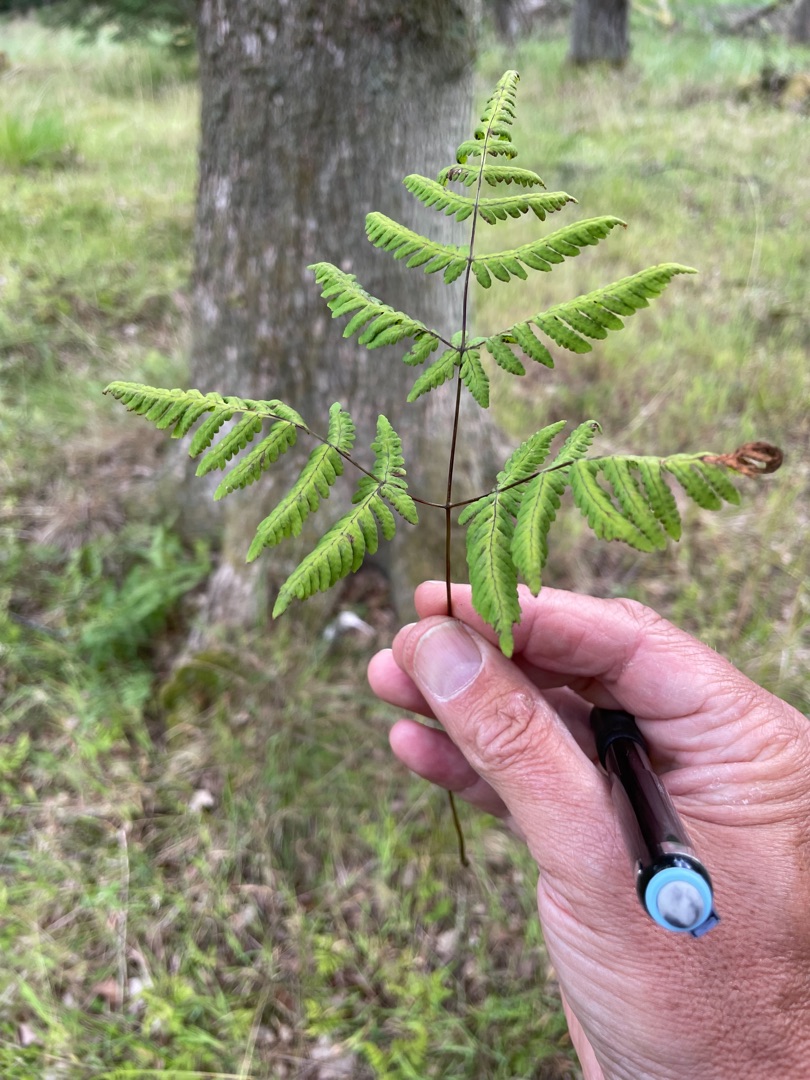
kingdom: Plantae
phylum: Tracheophyta
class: Polypodiopsida
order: Polypodiales
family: Cystopteridaceae
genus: Gymnocarpium
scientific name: Gymnocarpium dryopteris
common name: Tredelt egebregne
